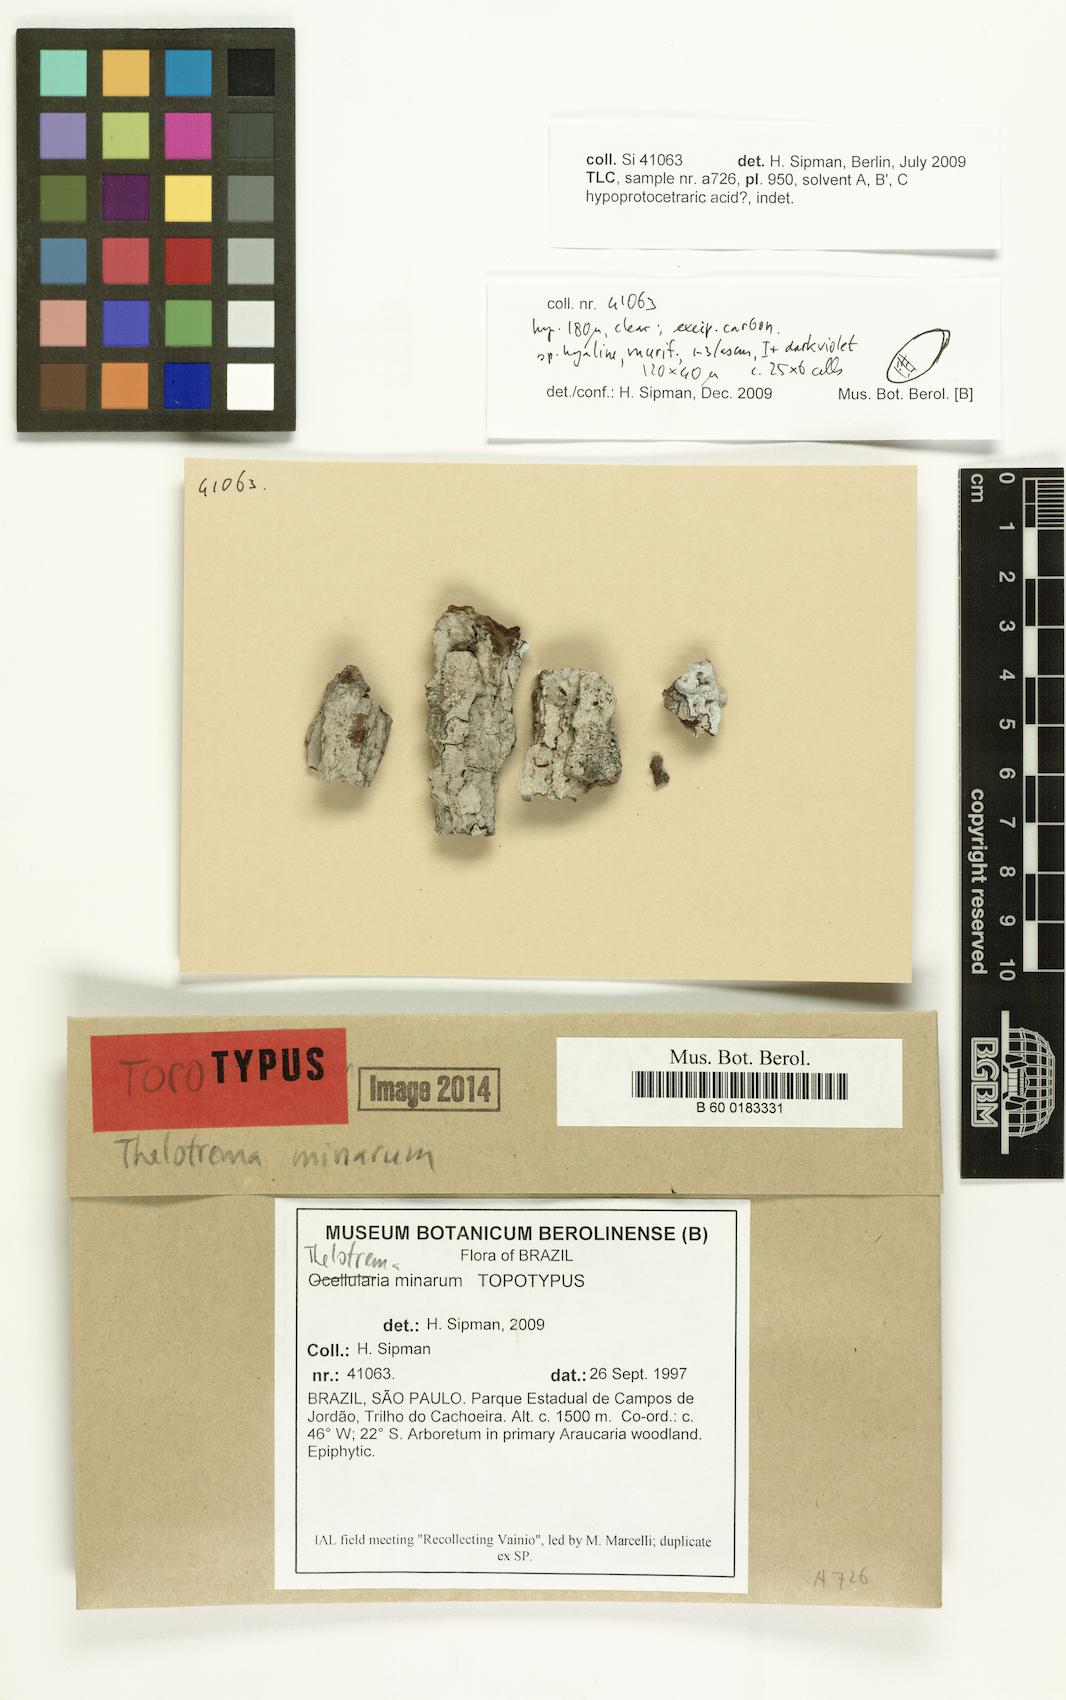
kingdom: Fungi
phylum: Ascomycota
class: Lecanoromycetes
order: Ostropales
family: Graphidaceae
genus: Thelotrema
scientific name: Thelotrema minarum
